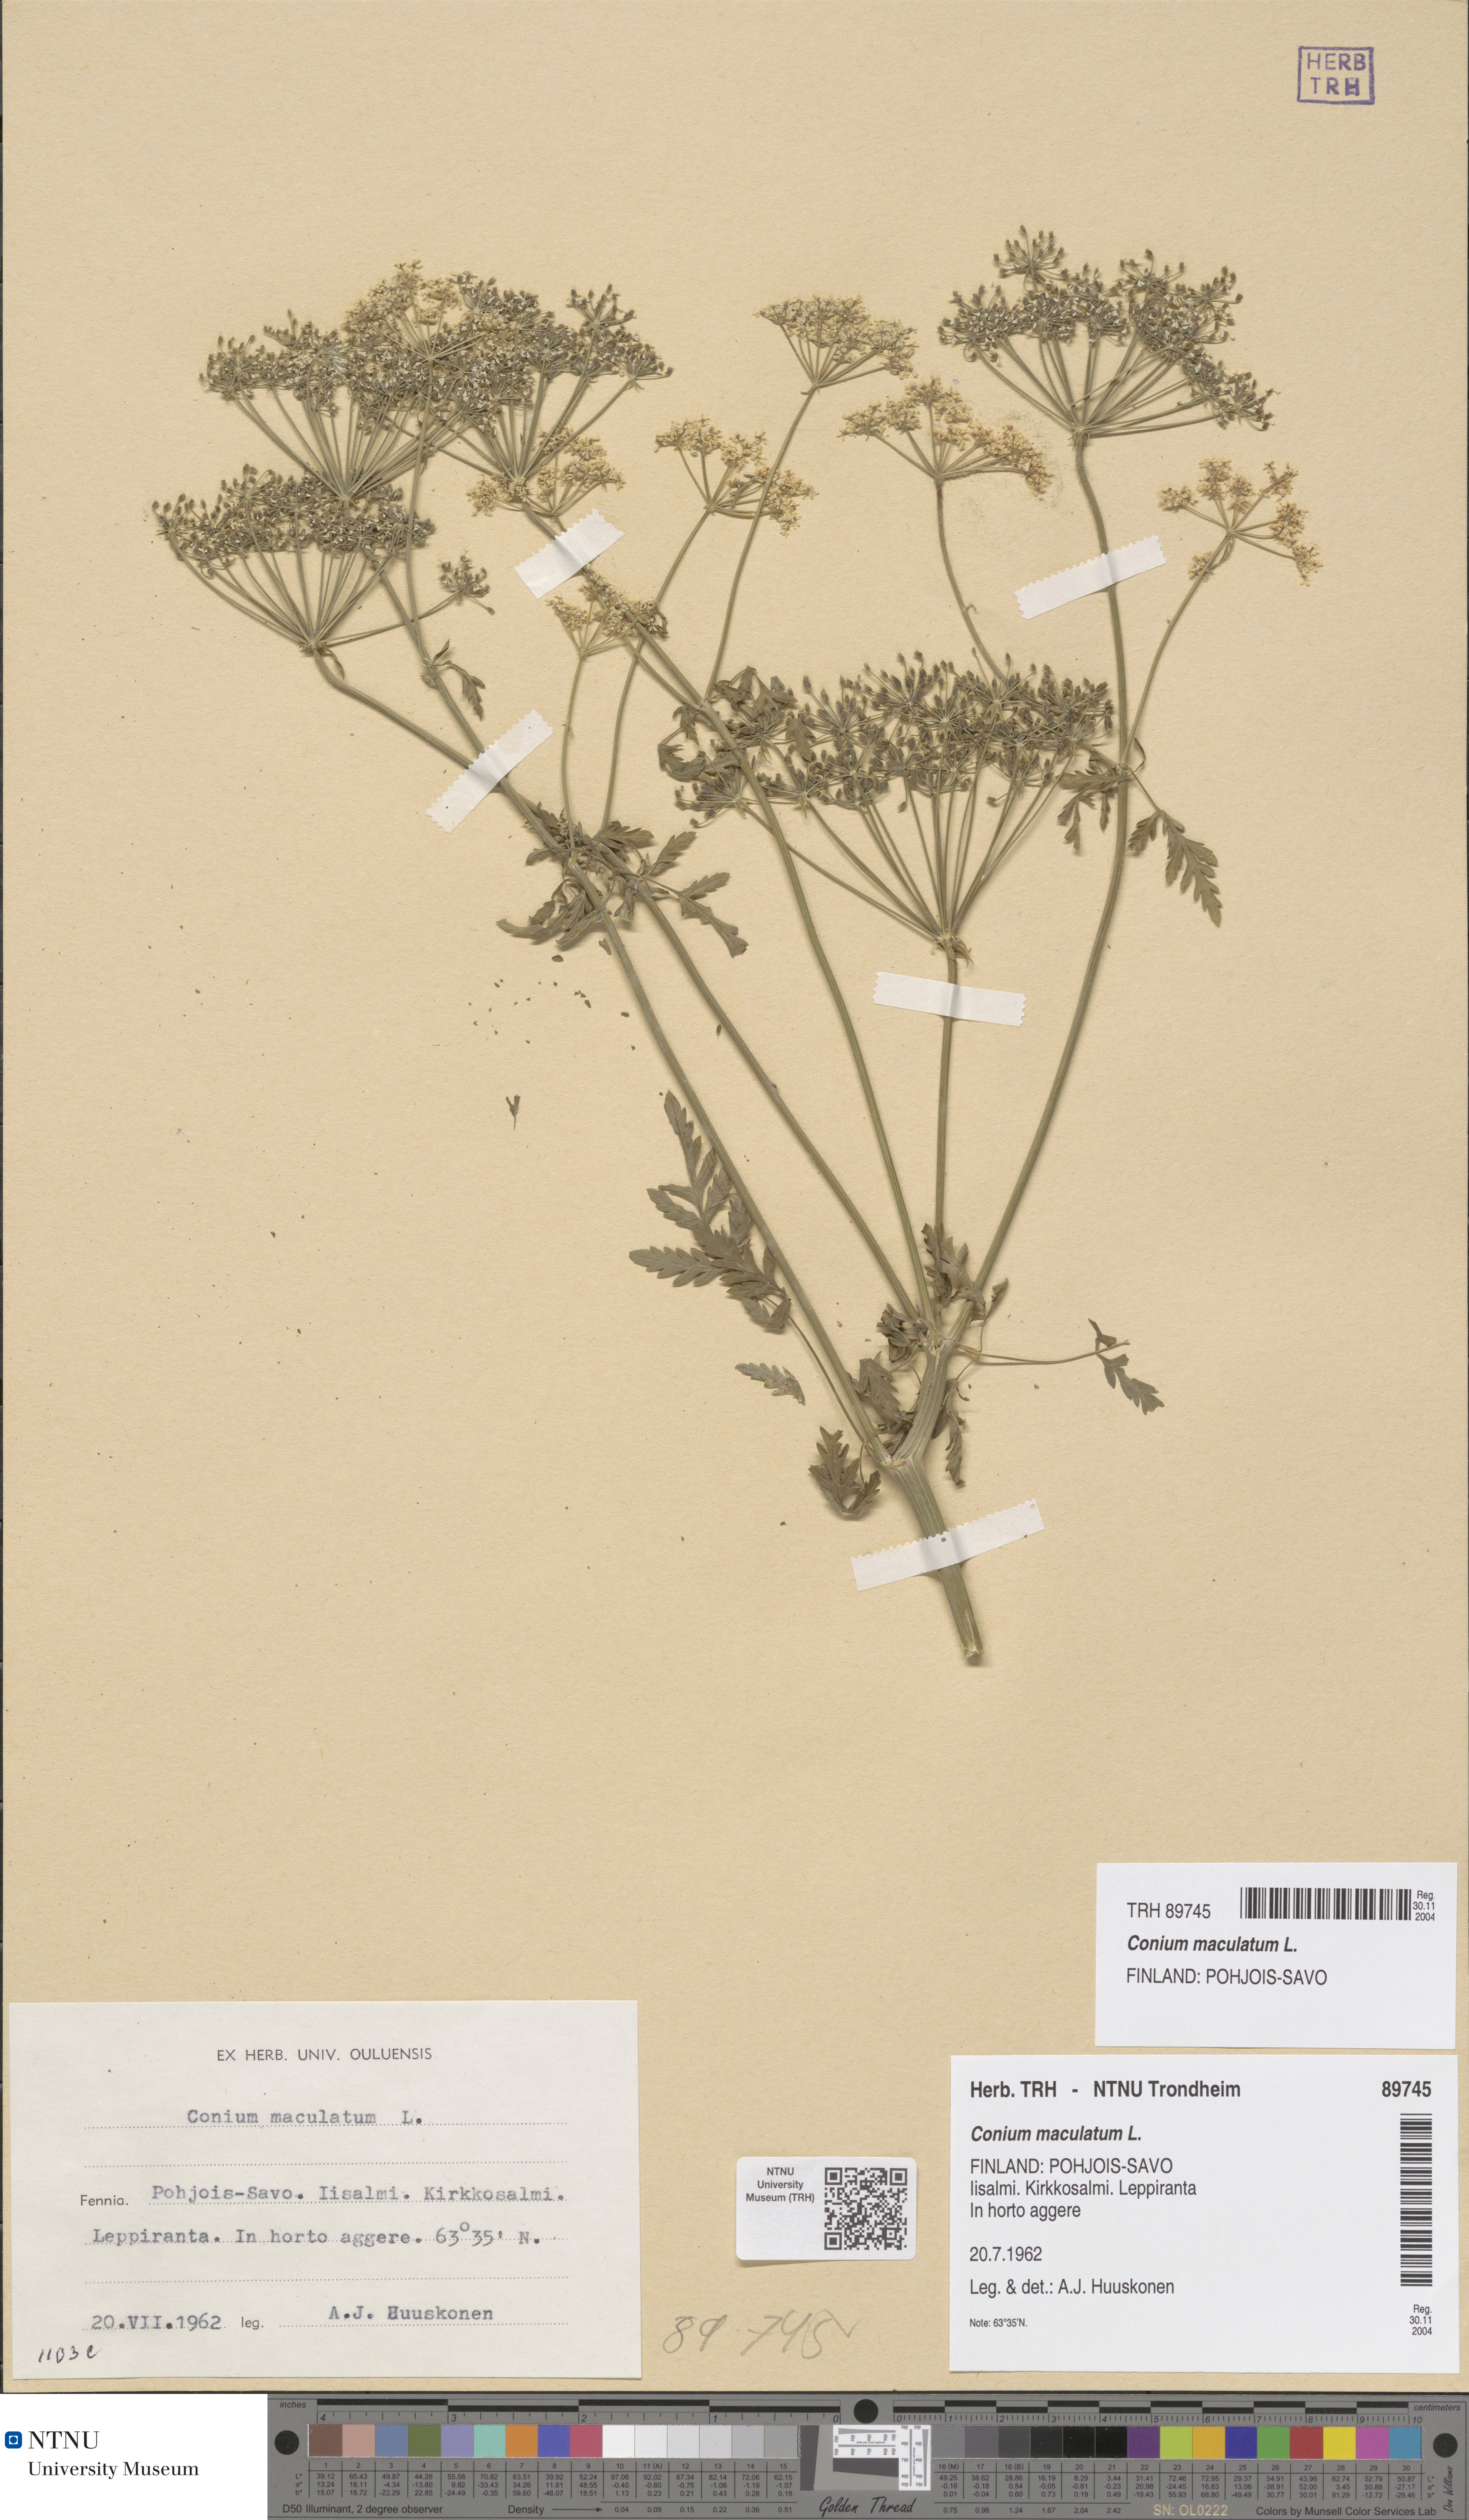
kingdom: Plantae
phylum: Tracheophyta
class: Magnoliopsida
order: Apiales
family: Apiaceae
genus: Conium
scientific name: Conium maculatum
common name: Hemlock
